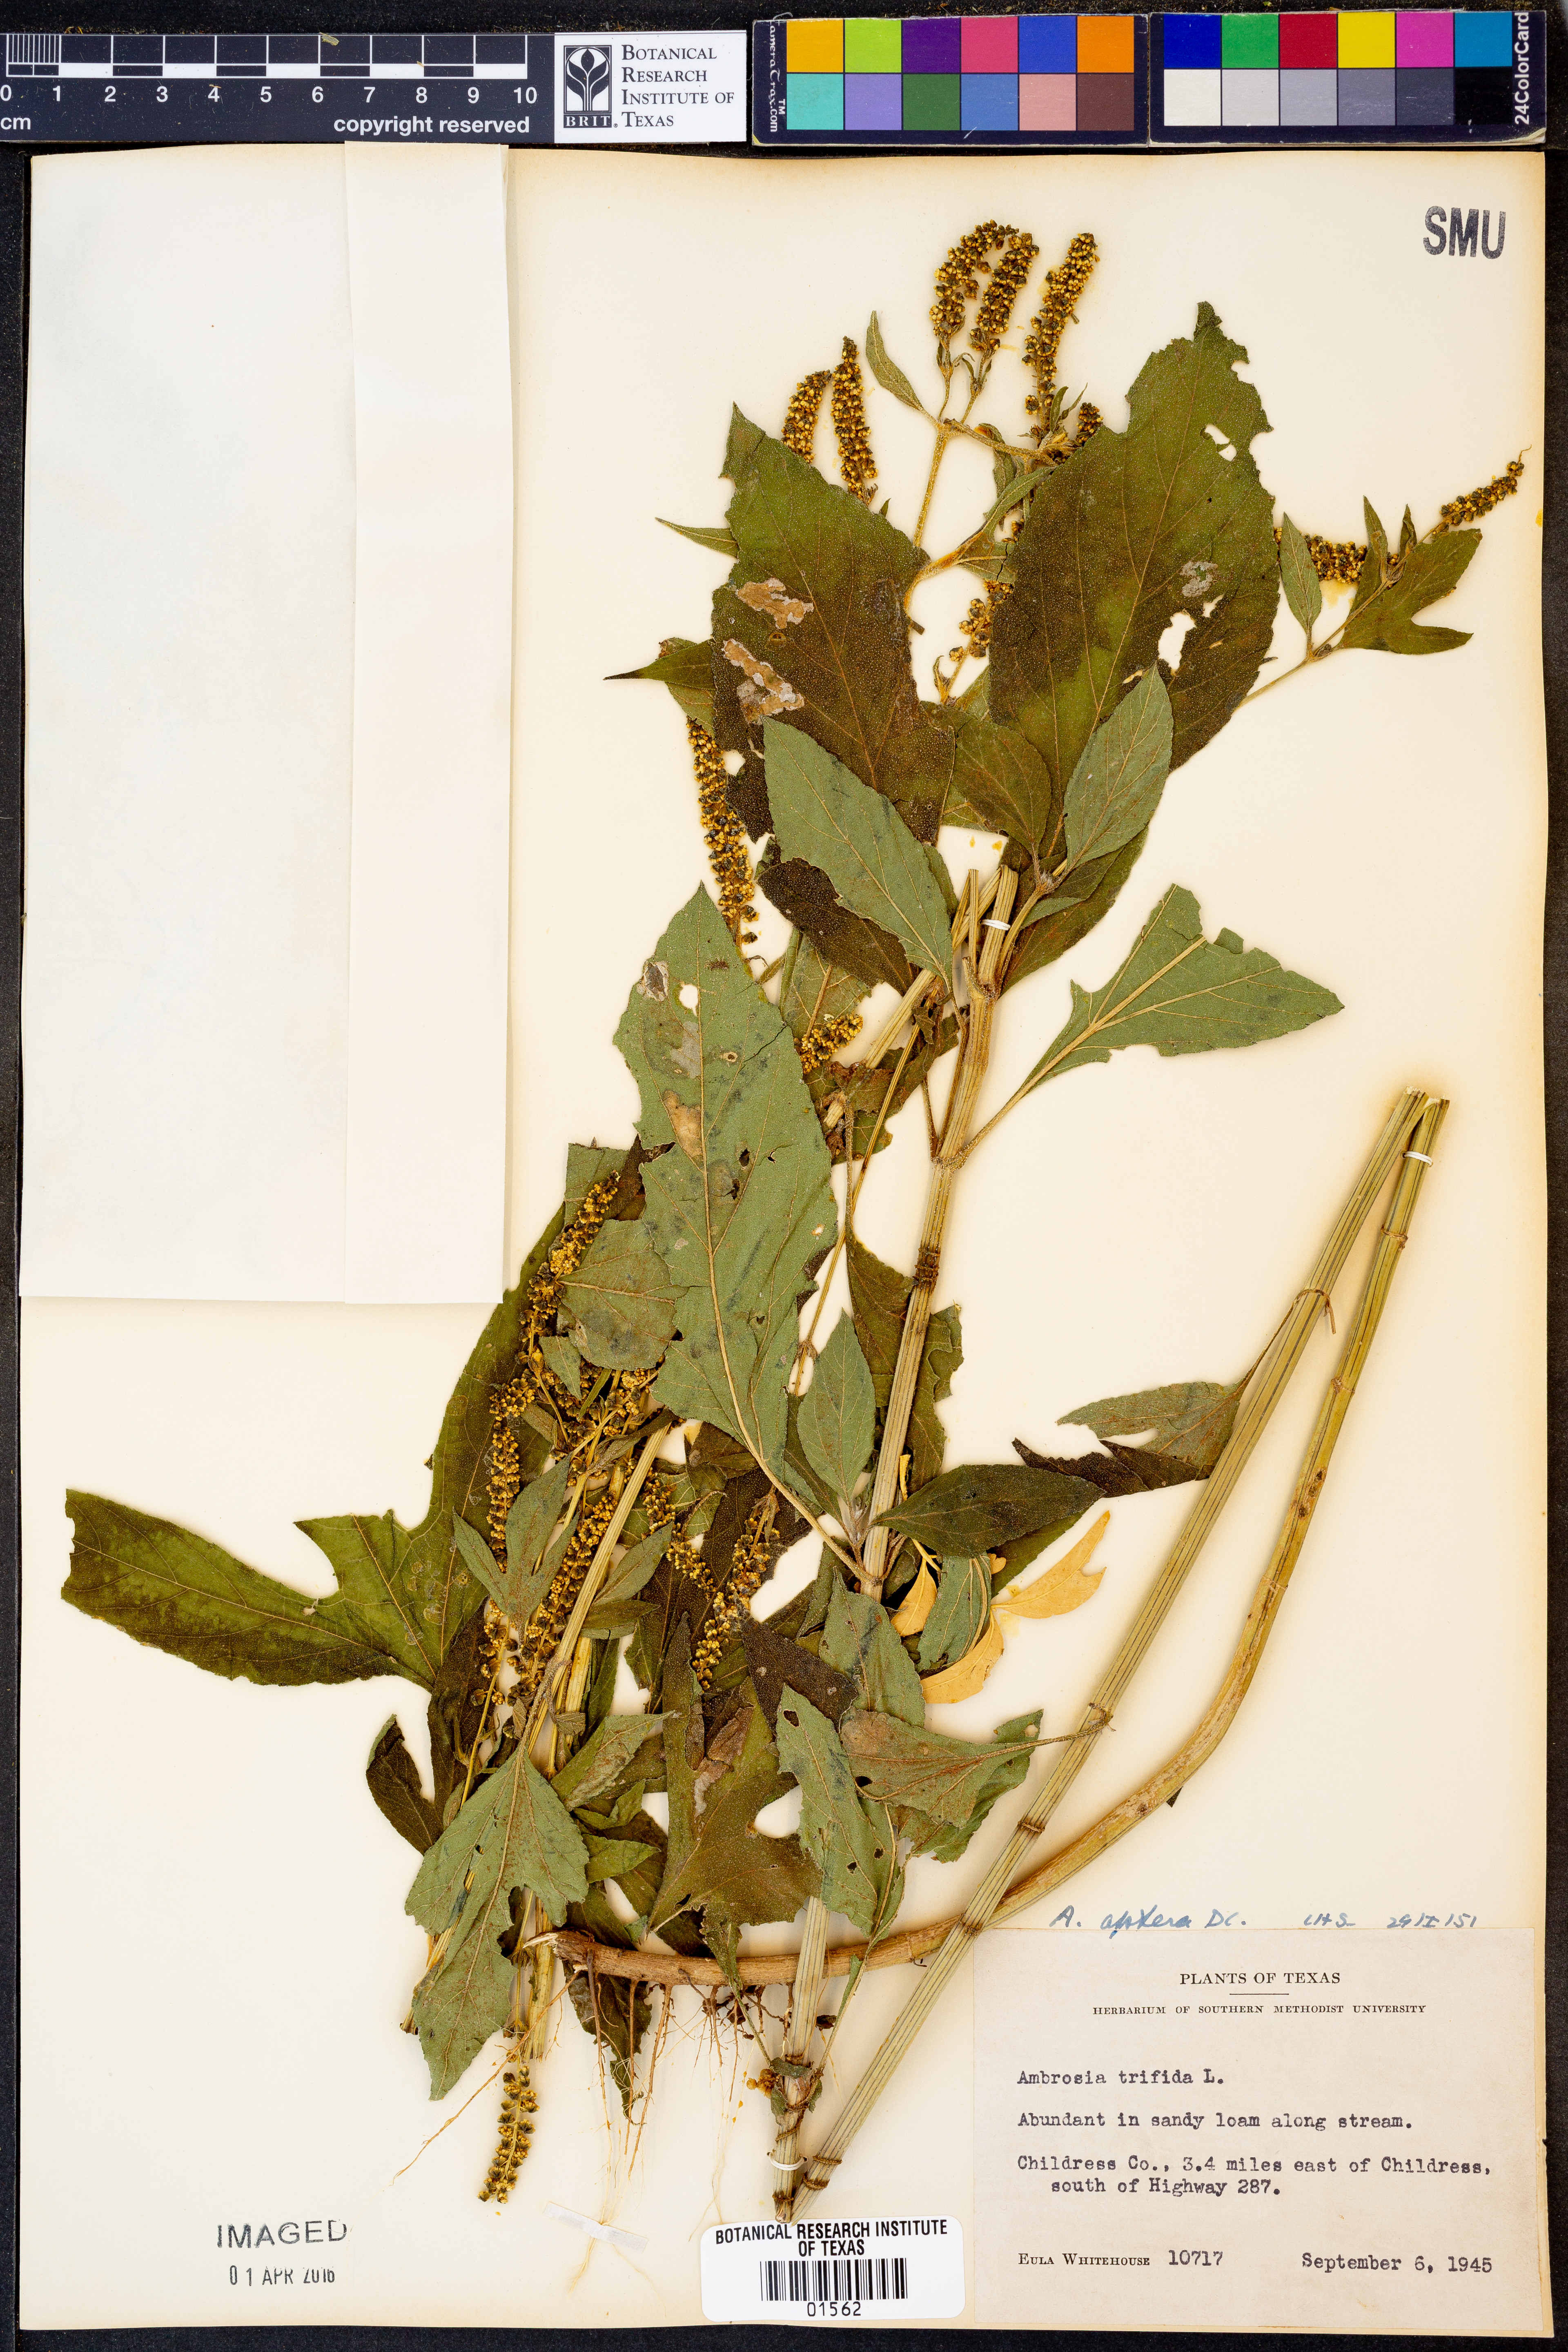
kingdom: Plantae
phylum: Tracheophyta
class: Magnoliopsida
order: Asterales
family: Asteraceae
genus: Ambrosia
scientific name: Ambrosia trifida
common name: Giant ragweed
